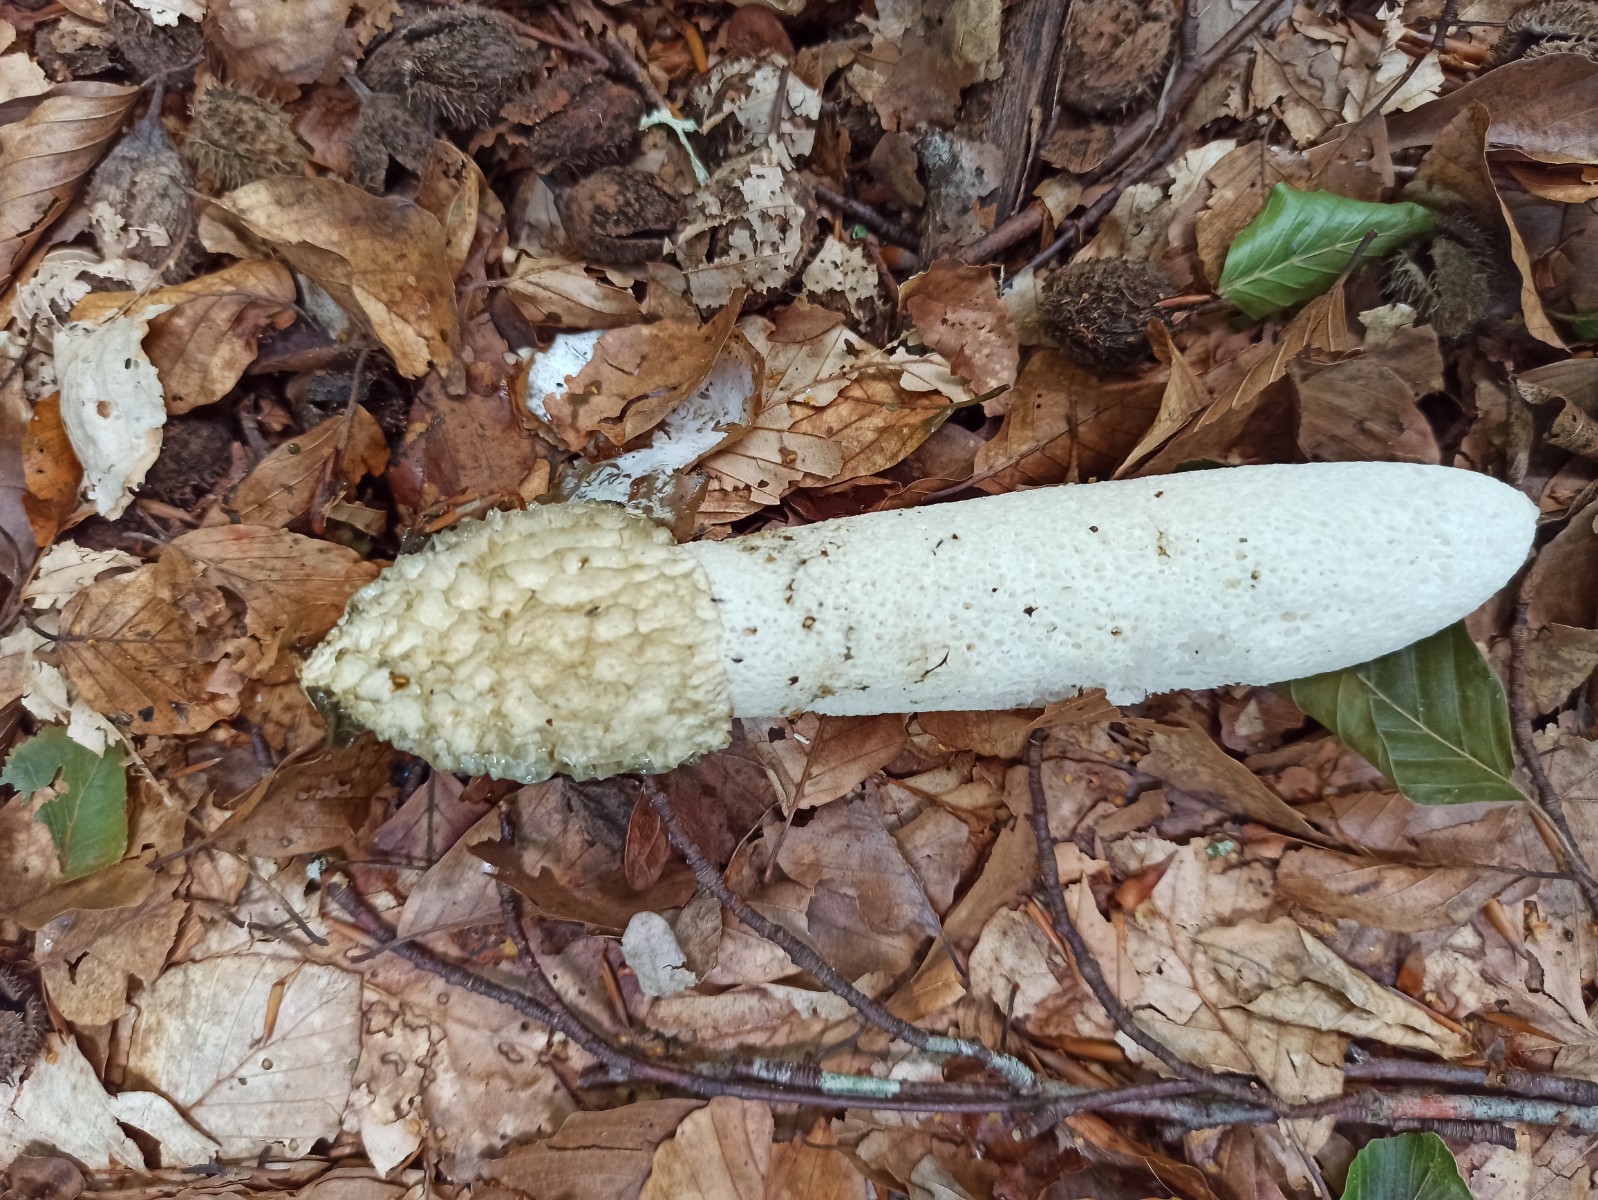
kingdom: Fungi
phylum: Basidiomycota
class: Agaricomycetes
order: Phallales
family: Phallaceae
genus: Phallus
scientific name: Phallus impudicus
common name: almindelig stinksvamp
